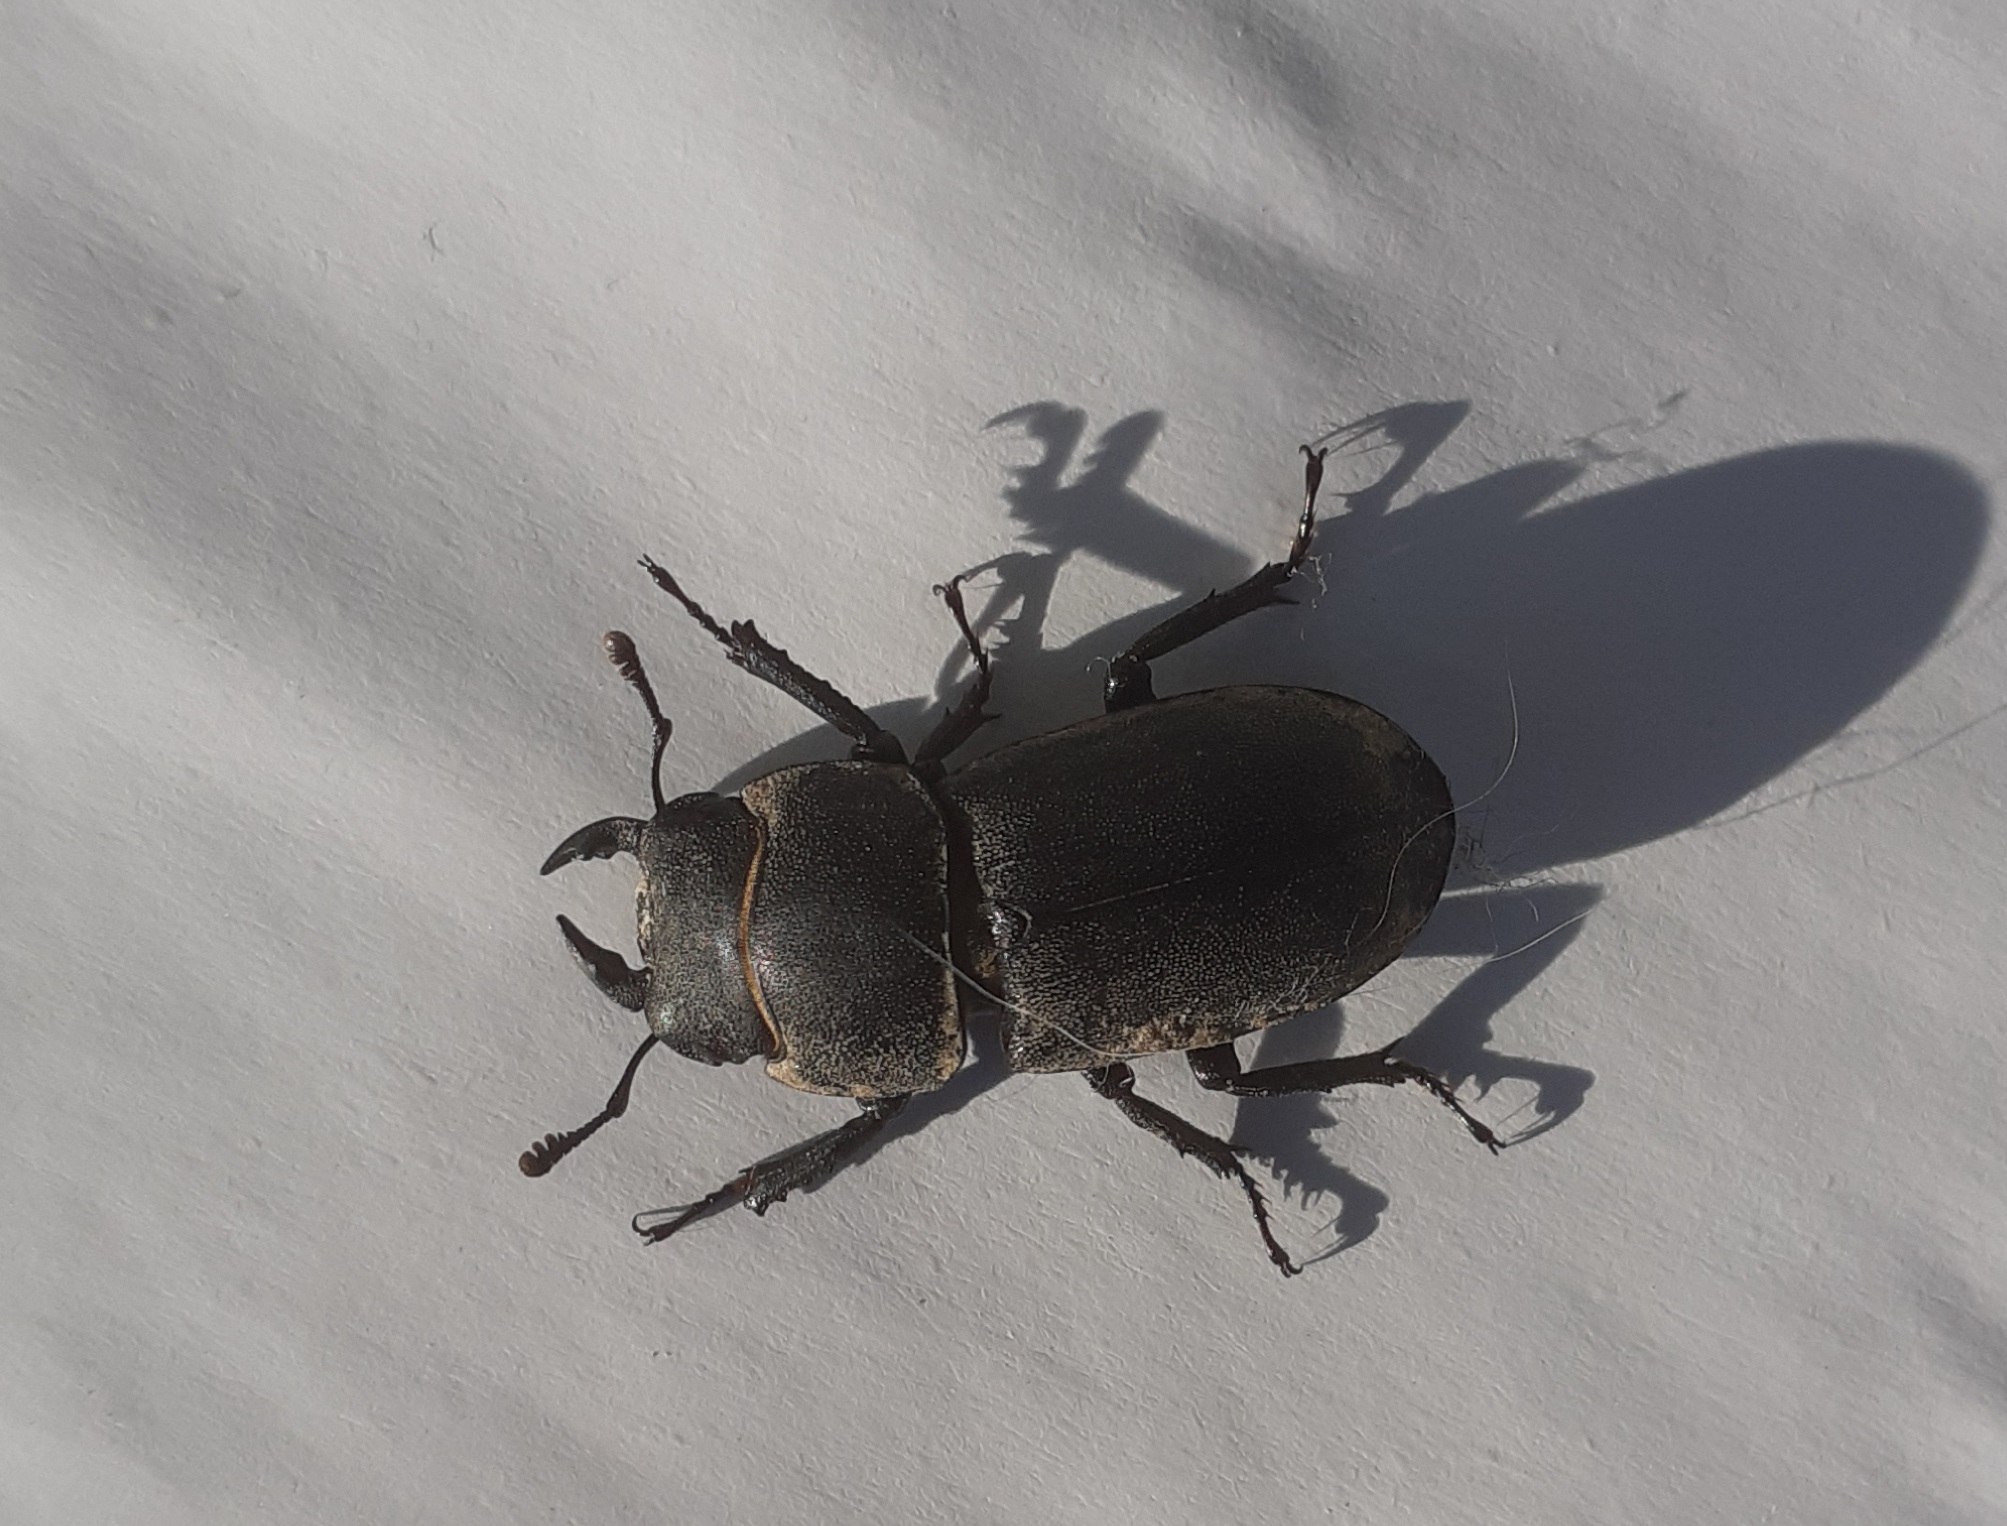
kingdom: Animalia
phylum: Arthropoda
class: Insecta
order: Coleoptera
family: Lucanidae
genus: Dorcus
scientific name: Dorcus parallelipipedus
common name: Bøghjort
